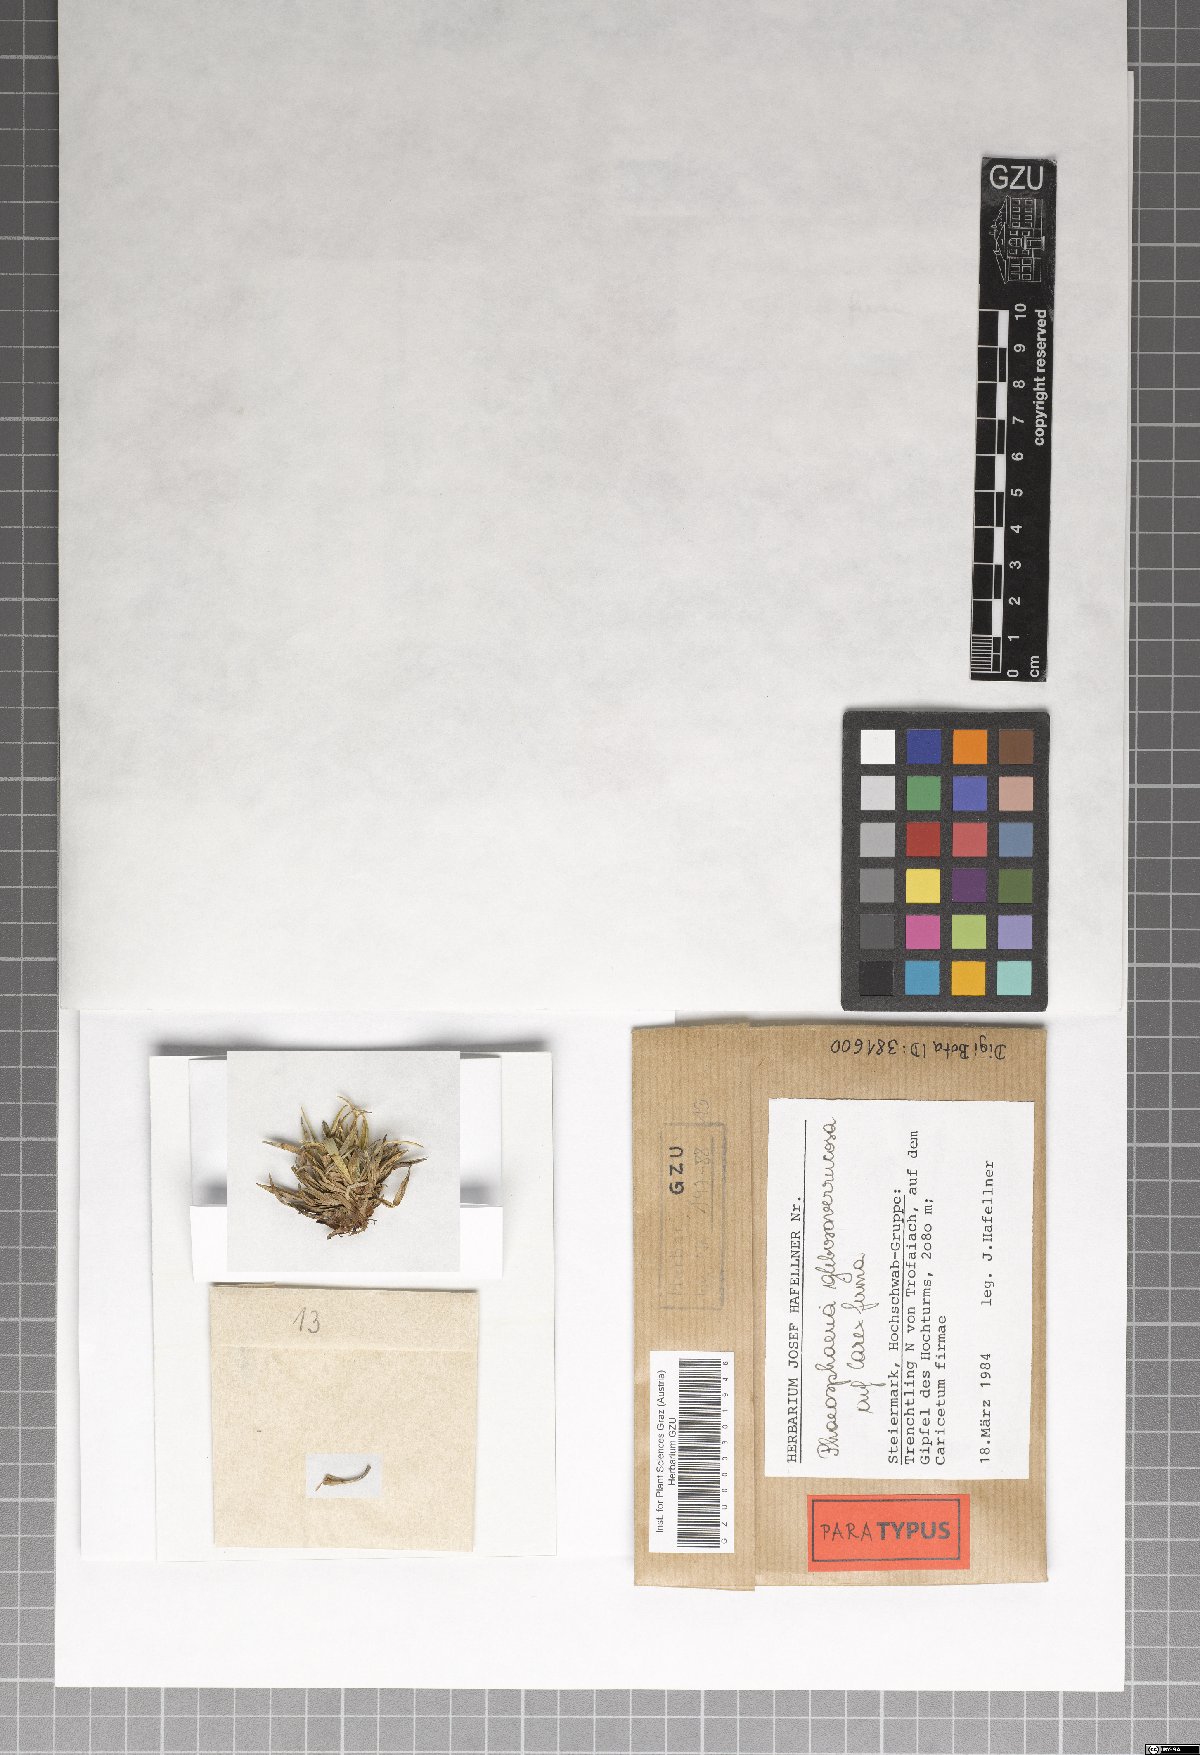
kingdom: Fungi
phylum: Ascomycota
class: Dothideomycetes
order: Pleosporales
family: Phaeosphaeriaceae
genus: Phaeosphaeria
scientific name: Phaeosphaeria glebosoverrucosa
